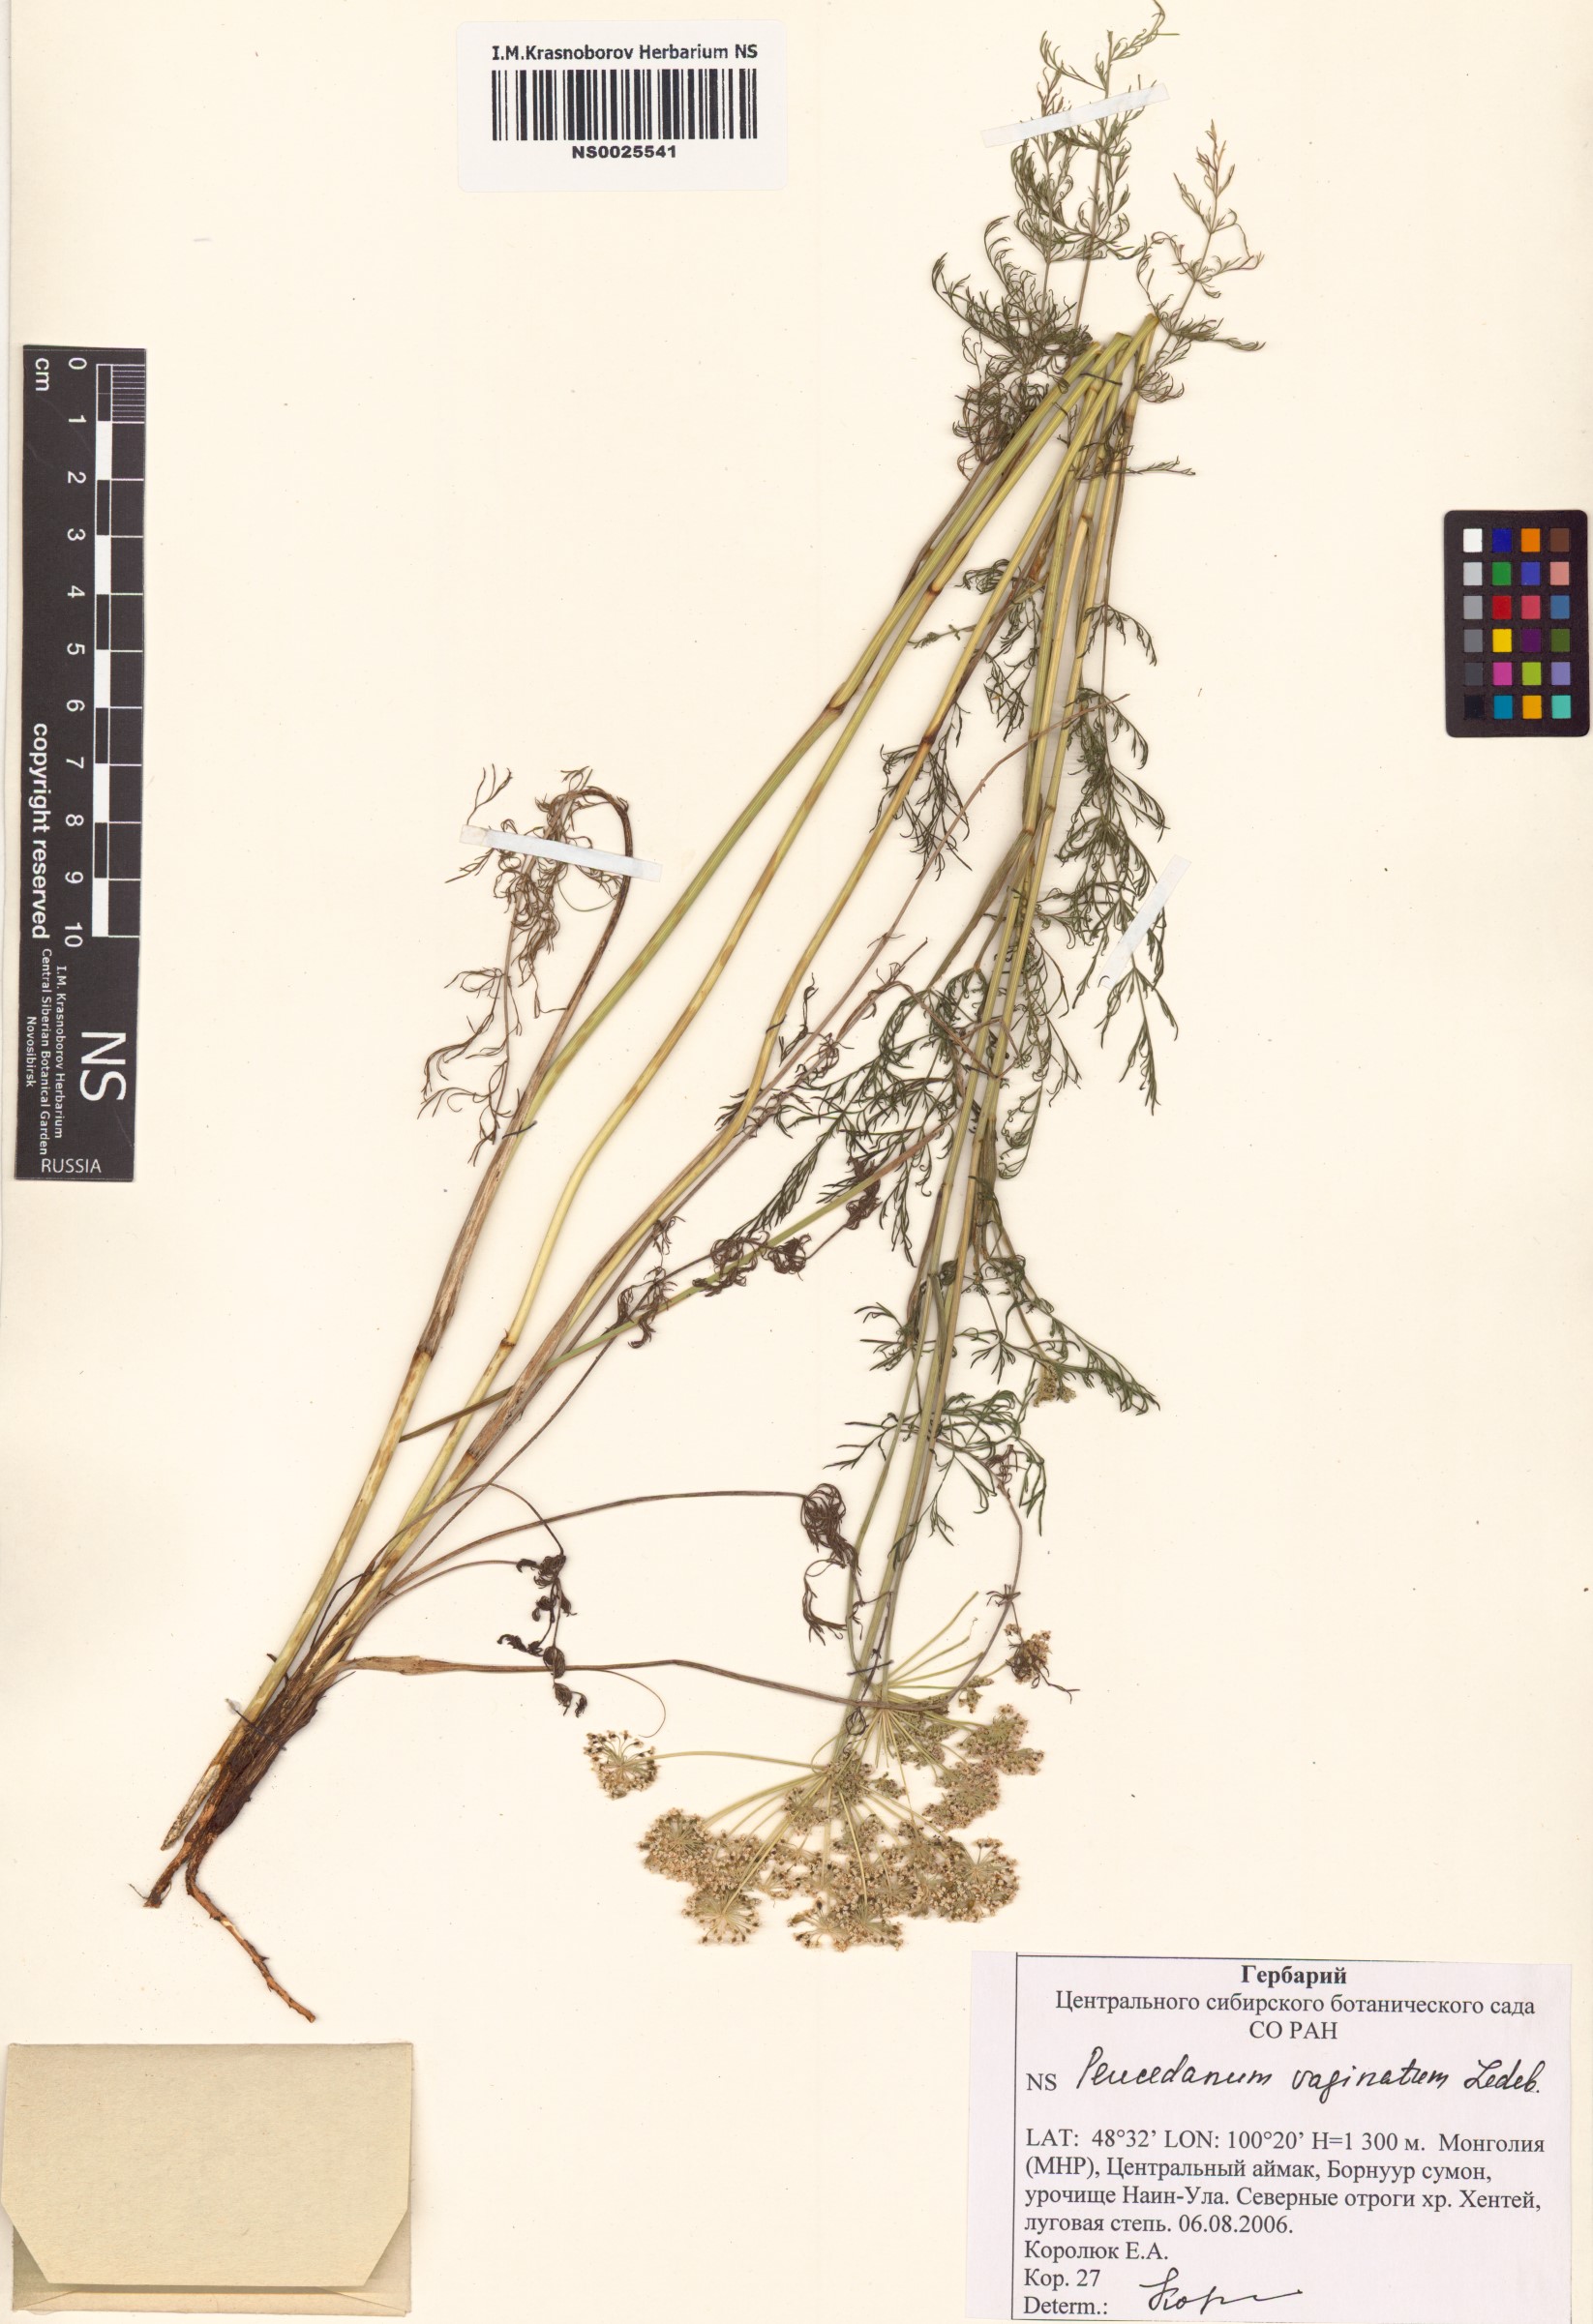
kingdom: Plantae
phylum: Tracheophyta
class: Magnoliopsida
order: Apiales
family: Apiaceae
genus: Peucedanum
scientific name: Peucedanum vaginatum
